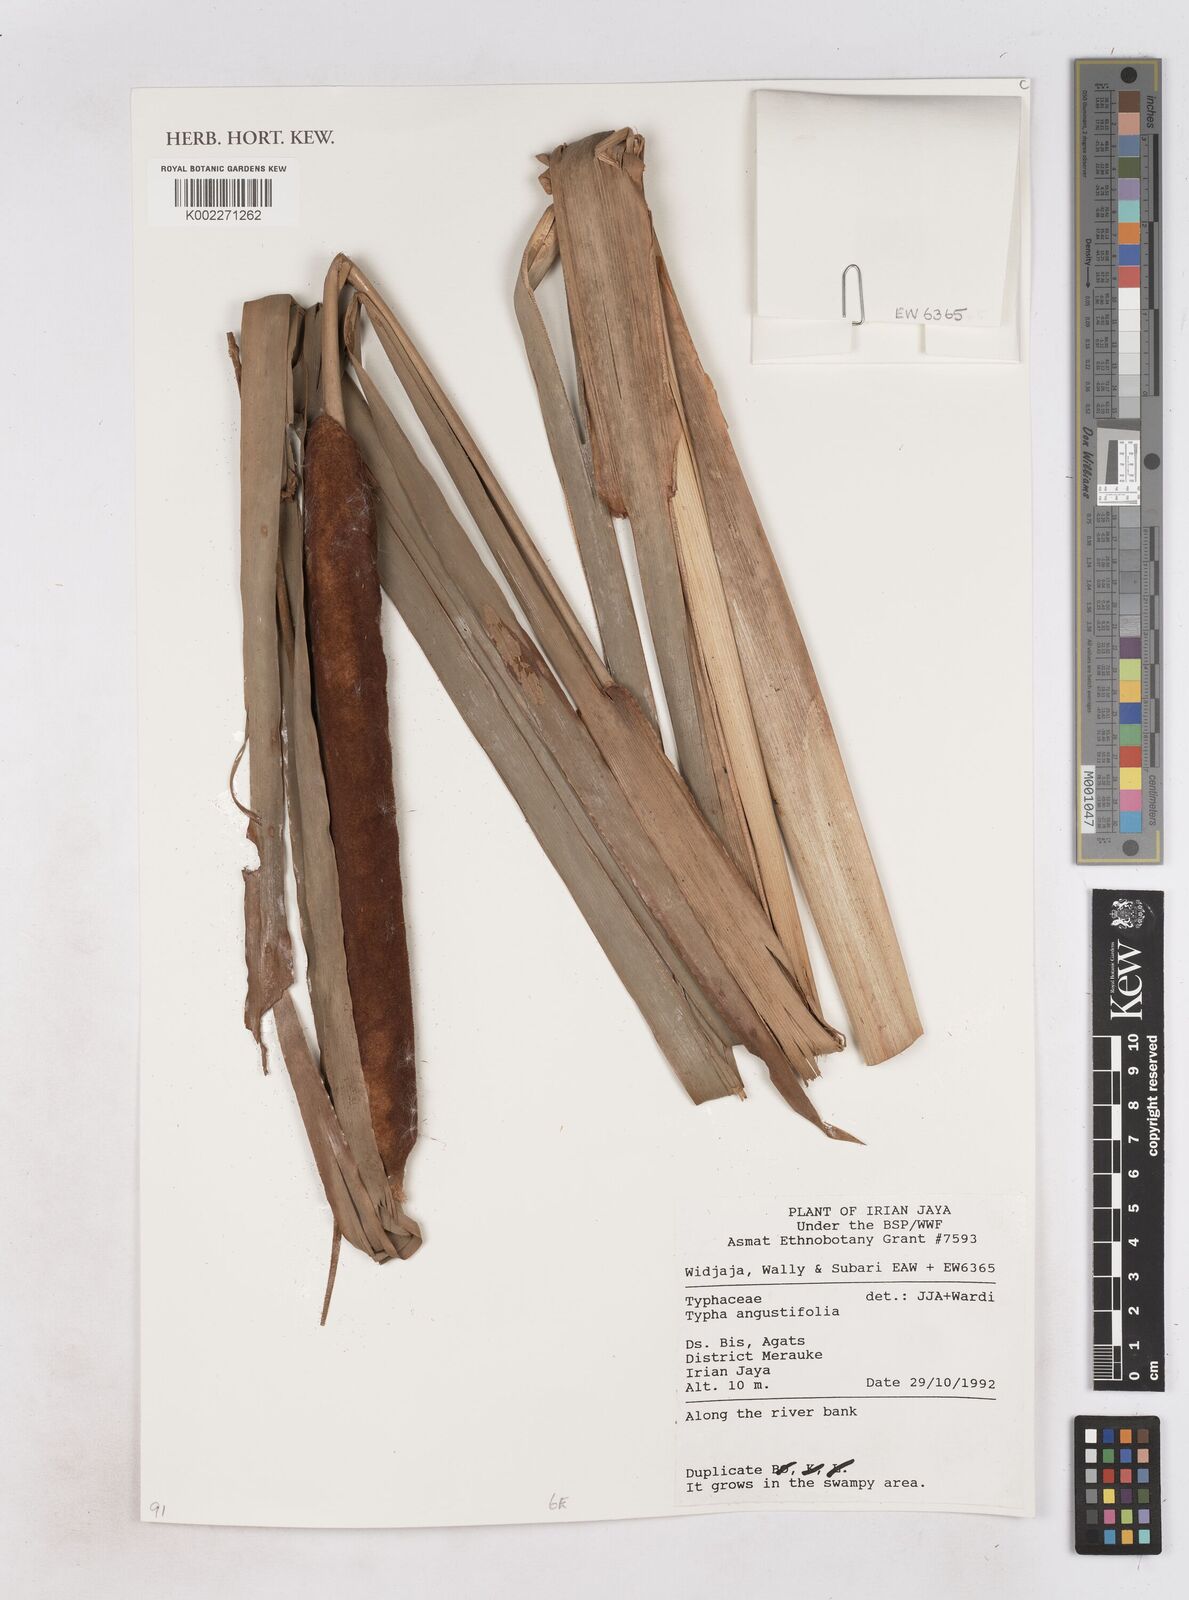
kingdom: Plantae
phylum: Tracheophyta
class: Liliopsida
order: Poales
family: Typhaceae
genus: Typha
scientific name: Typha angustifolia
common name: Lesser bulrush
